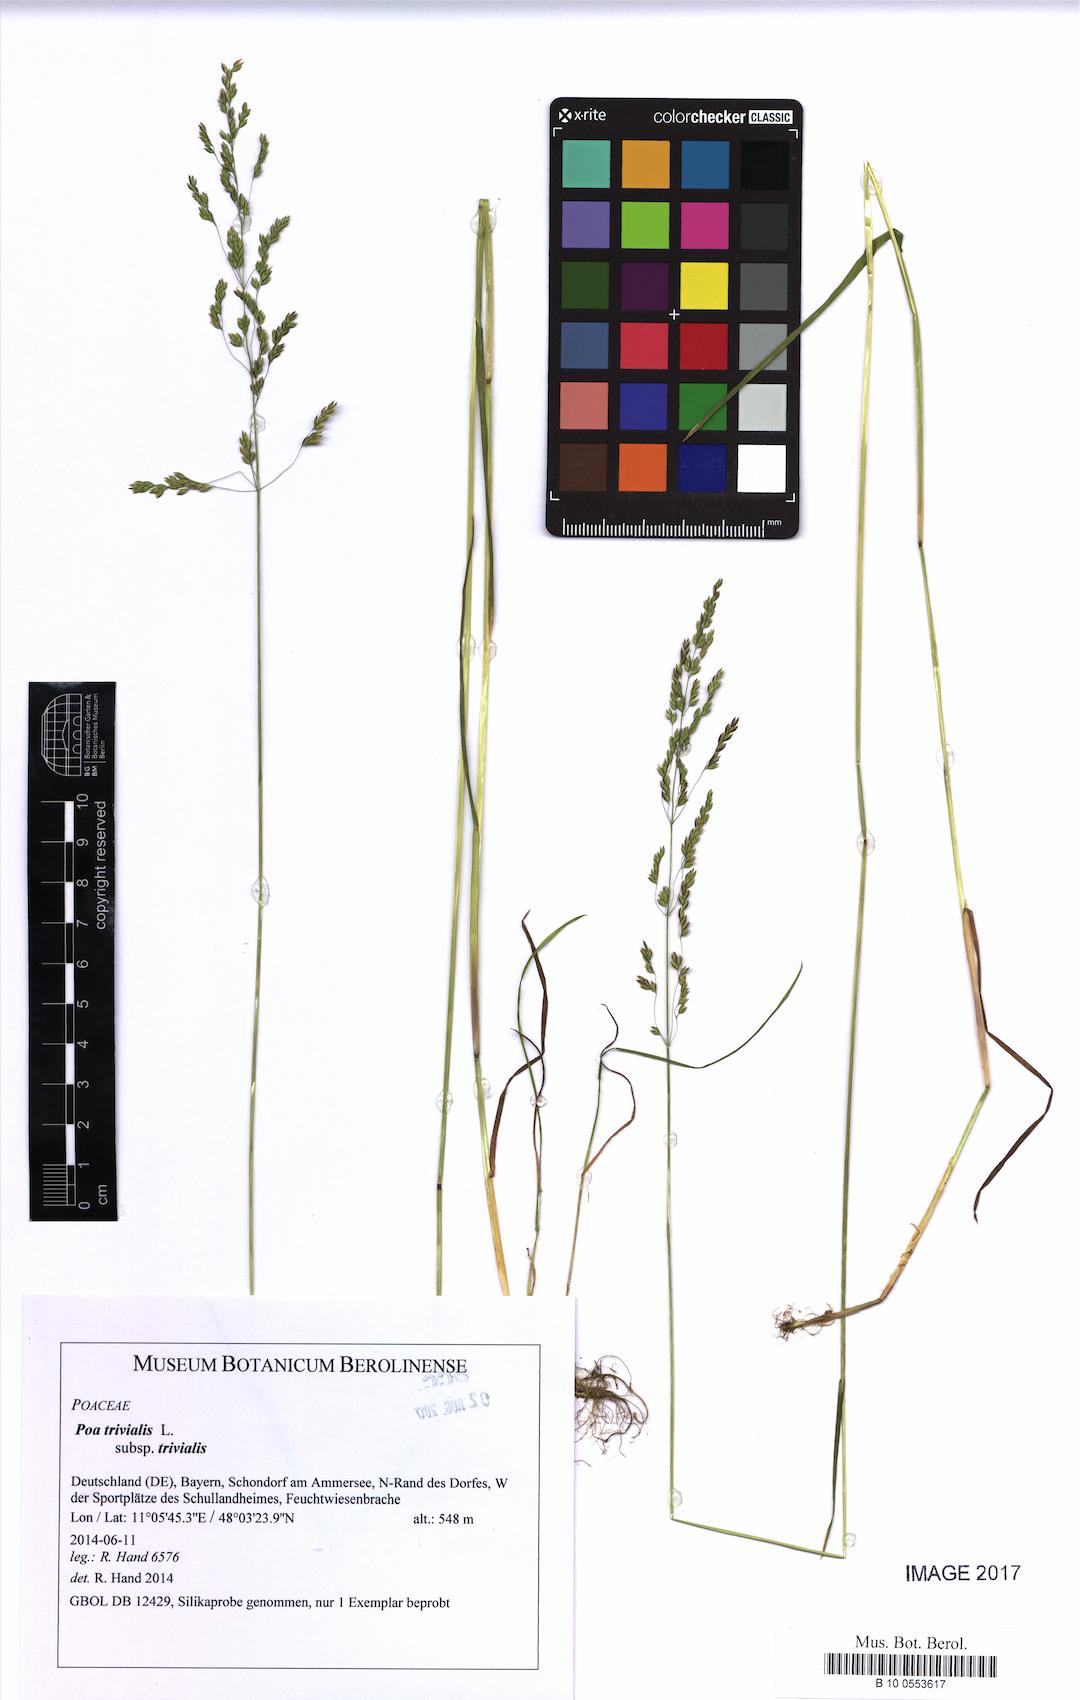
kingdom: Plantae
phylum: Tracheophyta
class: Liliopsida
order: Poales
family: Poaceae
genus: Poa
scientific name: Poa trivialis
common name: Rough bluegrass
